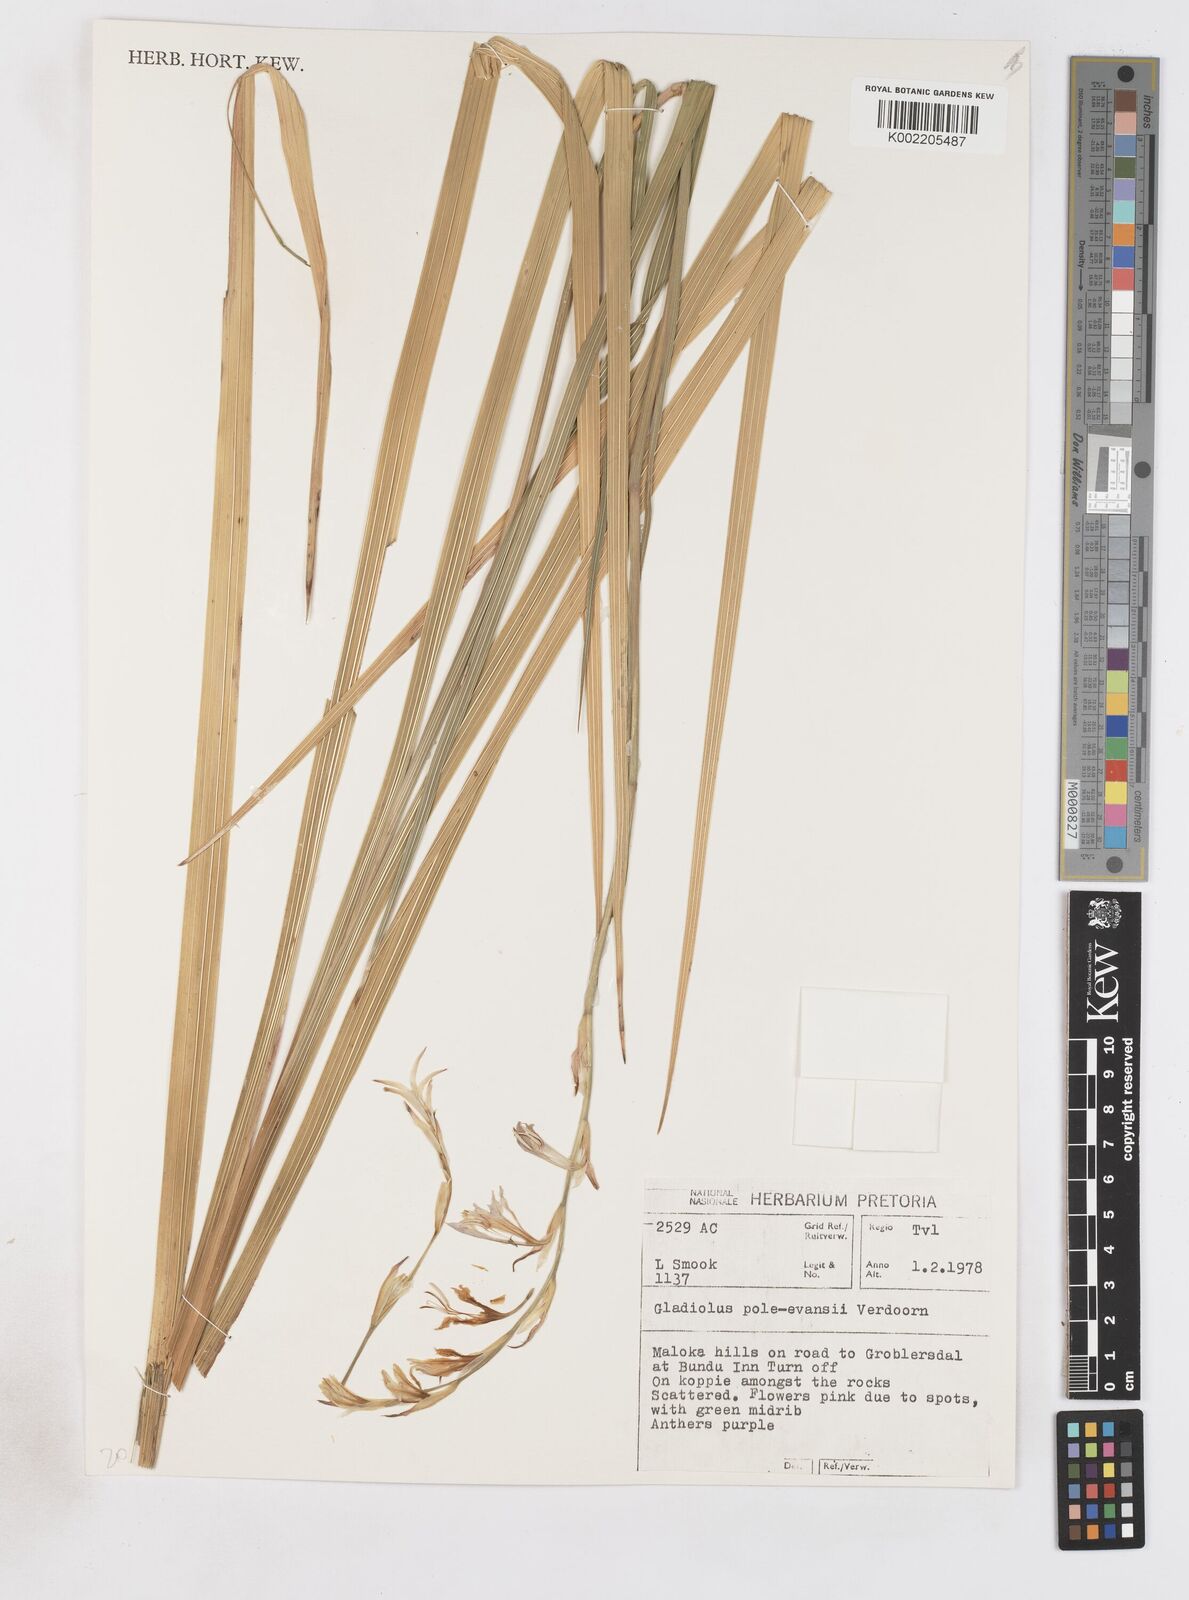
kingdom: Plantae
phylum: Tracheophyta
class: Liliopsida
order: Asparagales
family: Iridaceae
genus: Gladiolus
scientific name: Gladiolus pole-evansii
